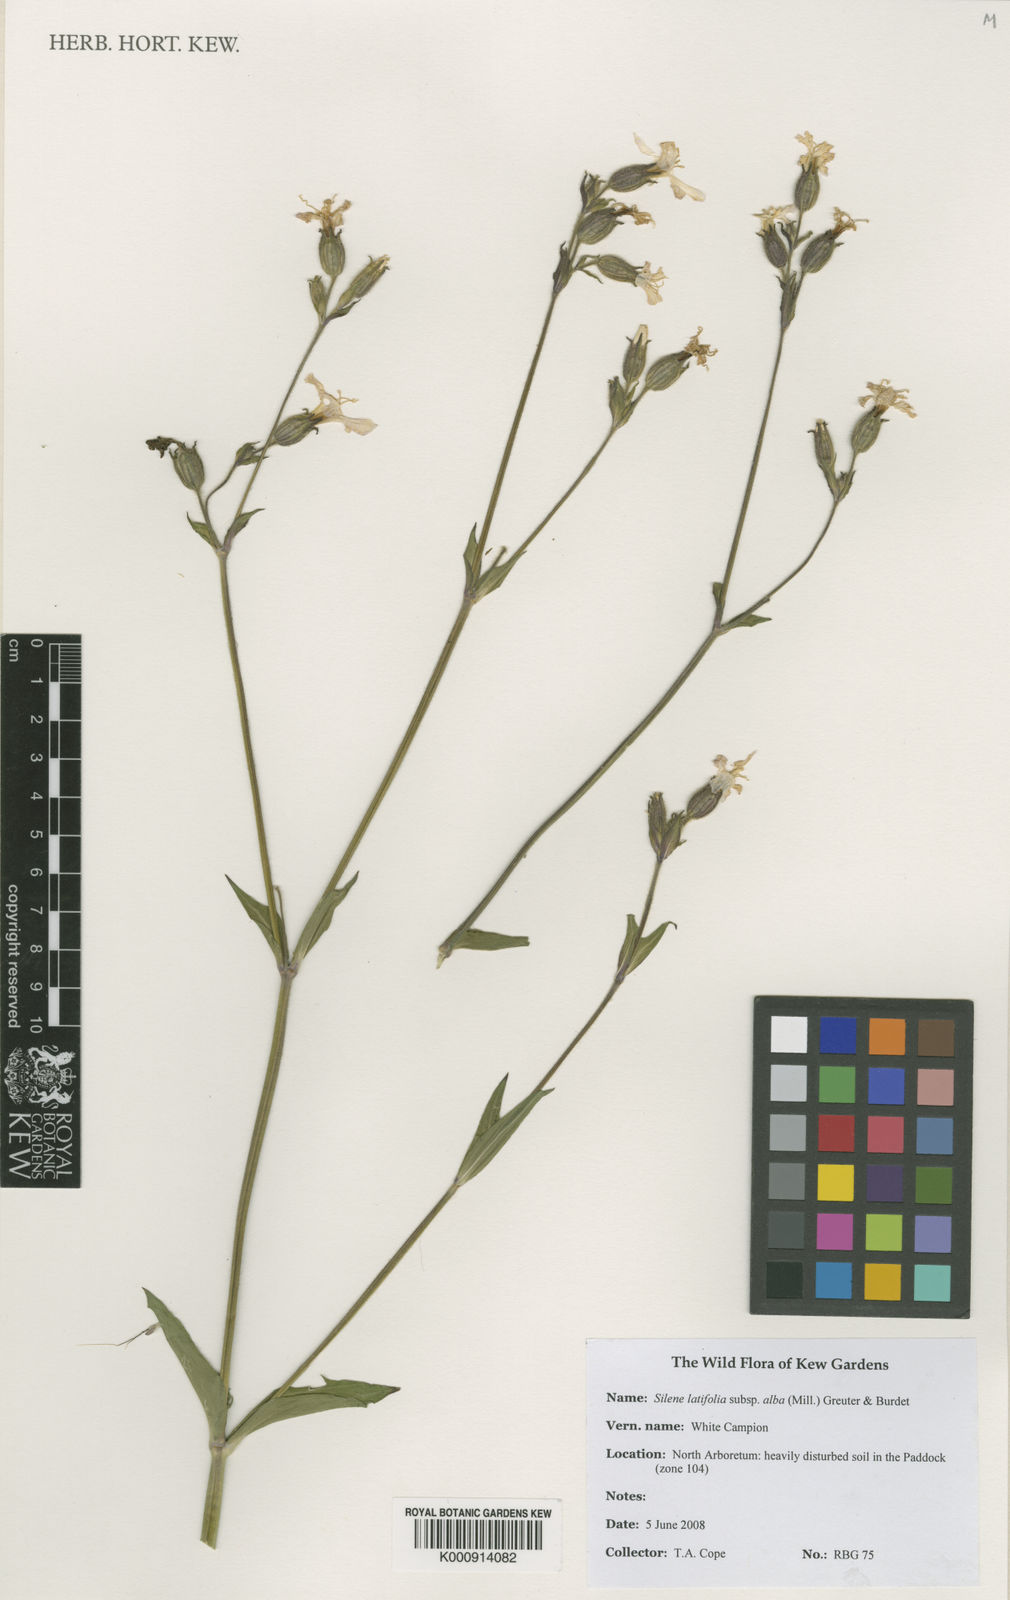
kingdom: Plantae
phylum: Tracheophyta
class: Magnoliopsida
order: Caryophyllales
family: Caryophyllaceae
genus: Silene
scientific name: Silene latifolia
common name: White campion
